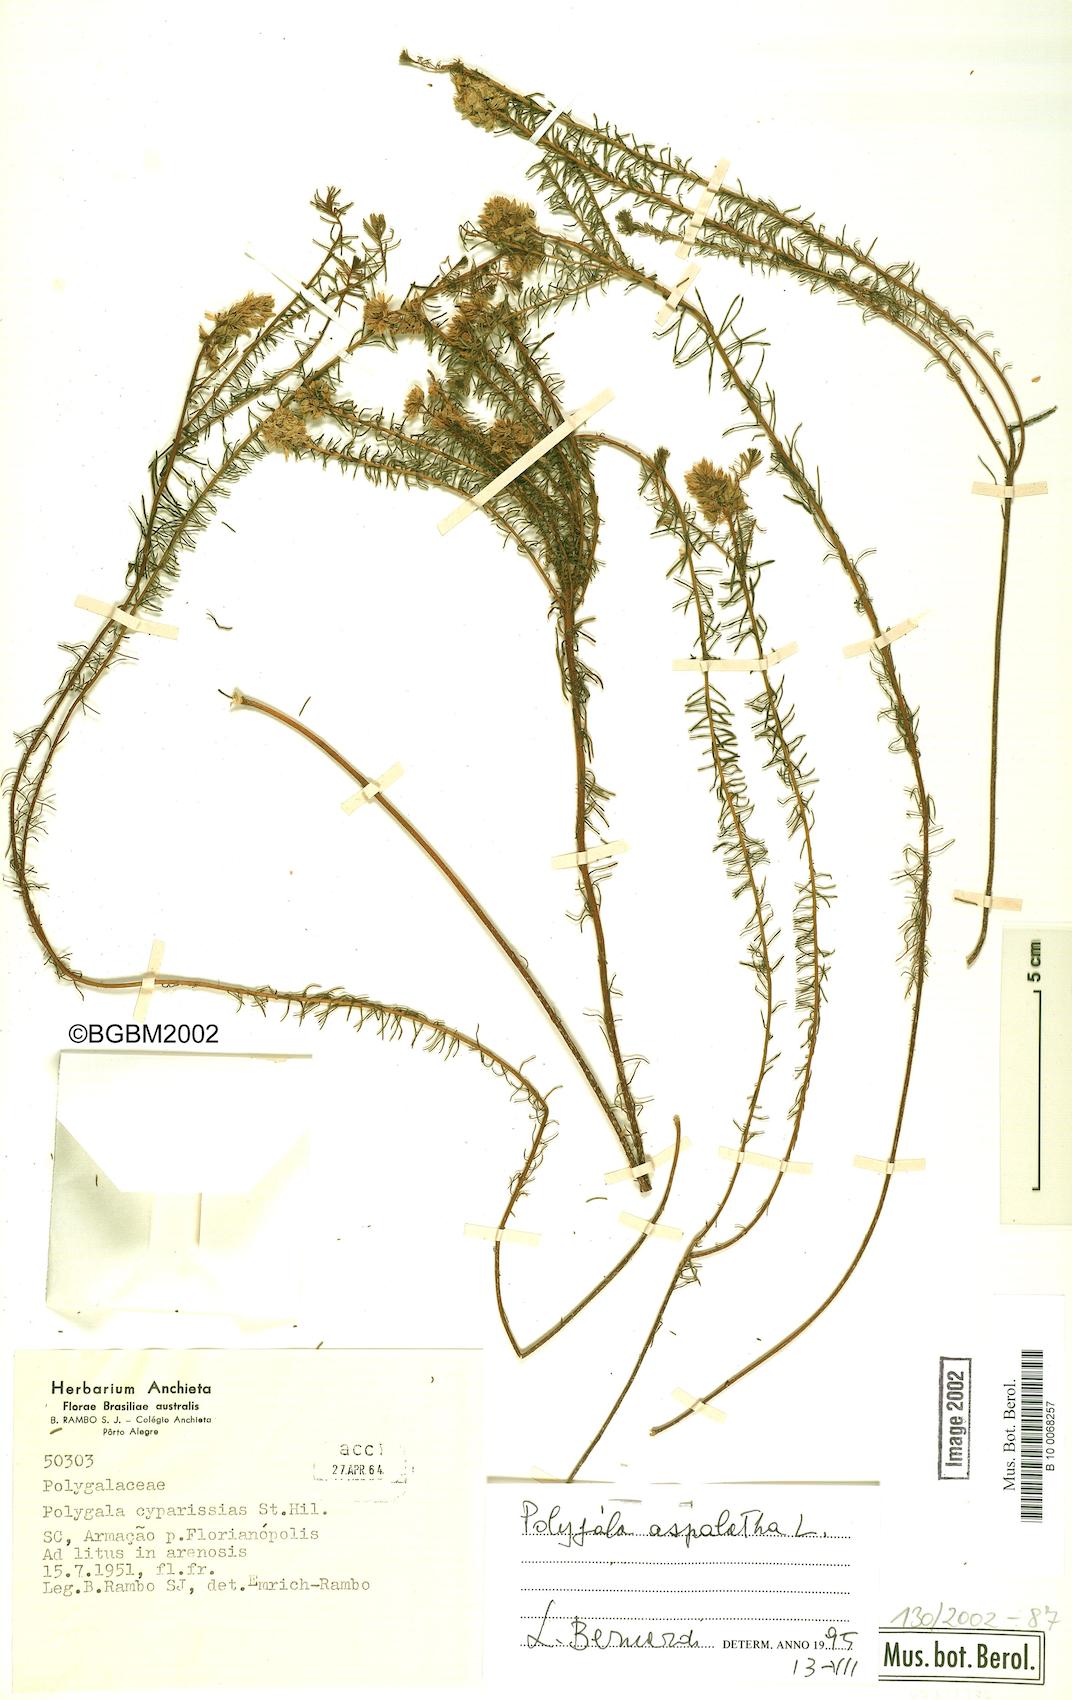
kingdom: Plantae
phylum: Tracheophyta
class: Magnoliopsida
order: Fabales
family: Polygalaceae
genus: Polygala
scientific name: Polygala aspalatha
